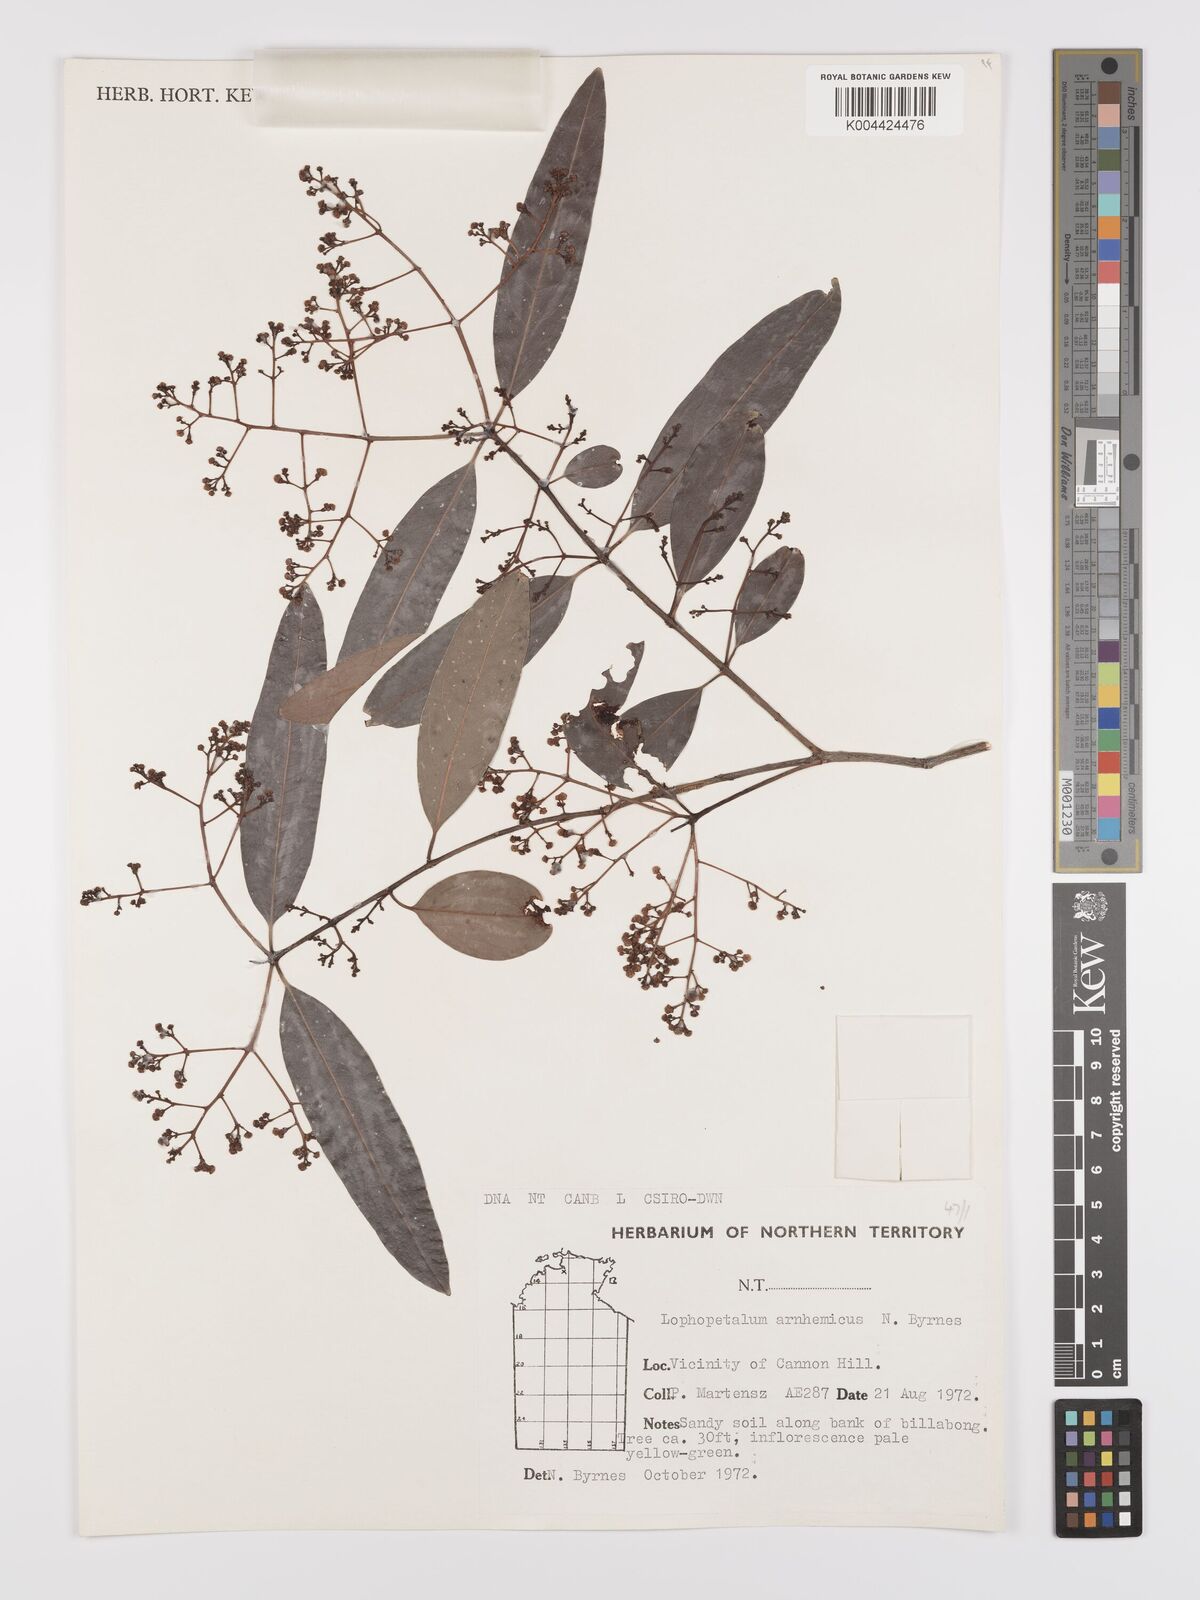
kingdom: Plantae
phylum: Tracheophyta
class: Magnoliopsida
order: Celastrales
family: Celastraceae
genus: Lophopetalum
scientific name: Lophopetalum arnhemicum
